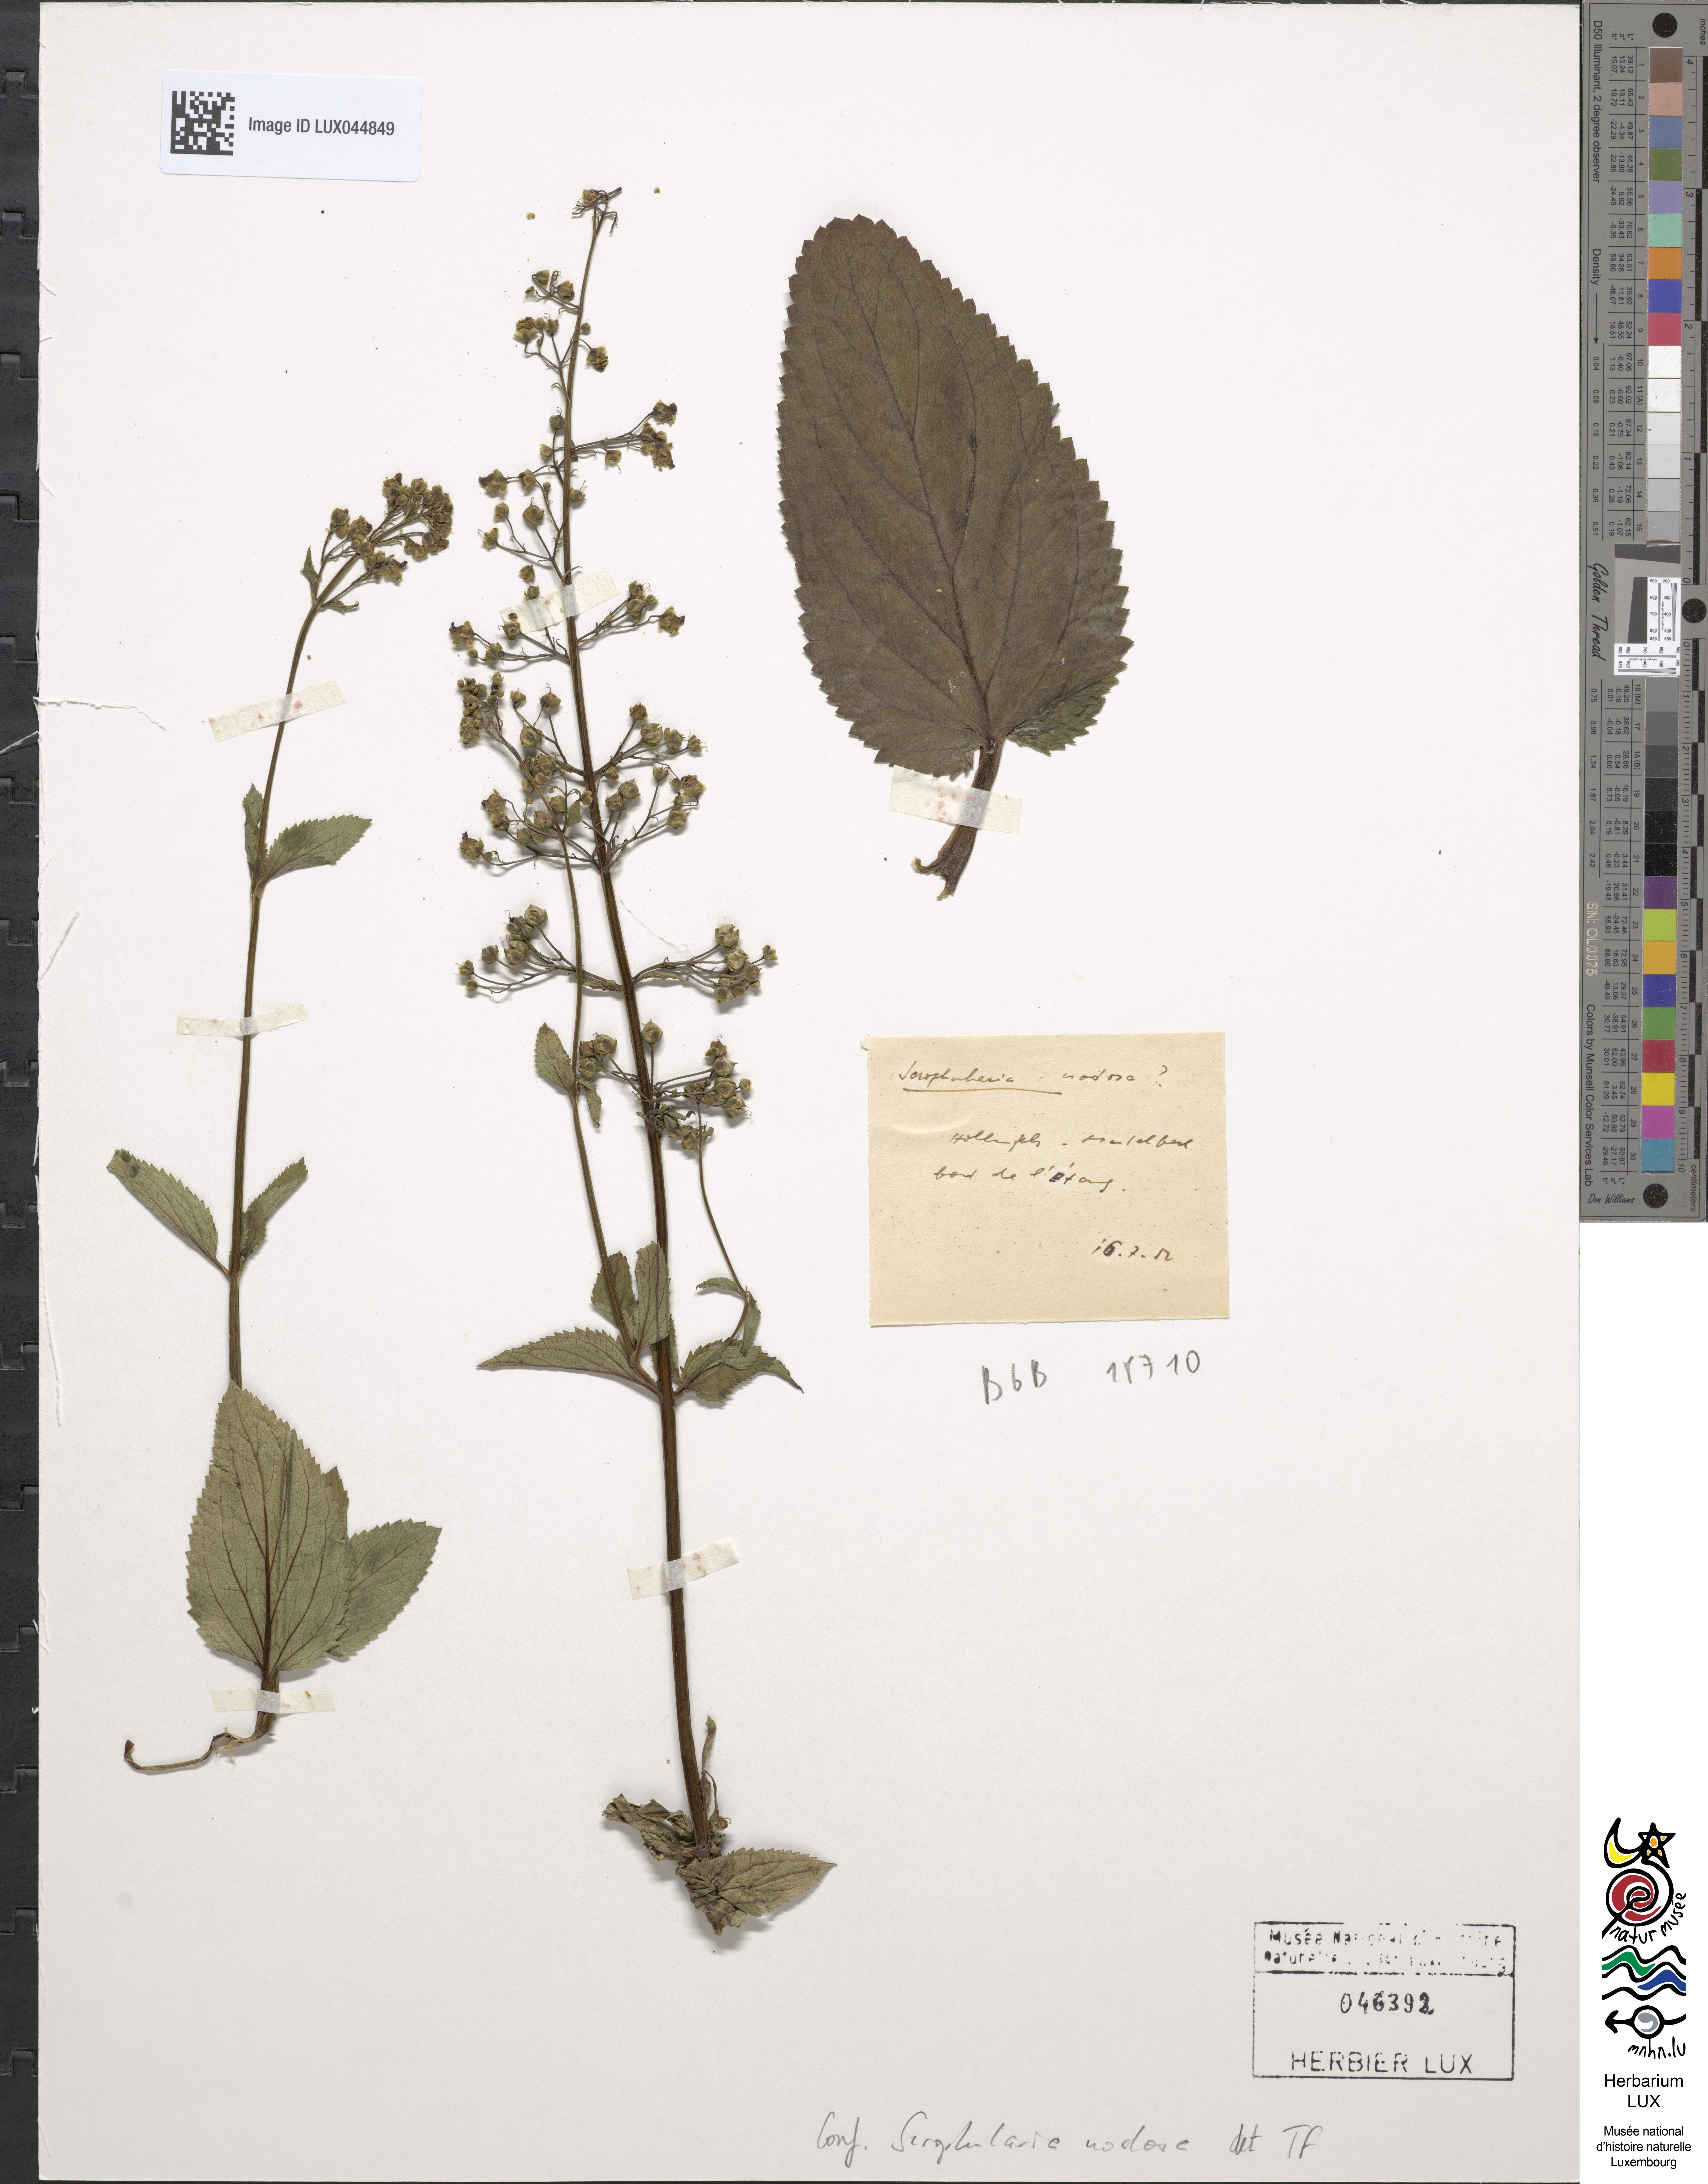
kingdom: Plantae
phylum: Tracheophyta
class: Magnoliopsida
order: Lamiales
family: Scrophulariaceae
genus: Scrophularia
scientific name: Scrophularia nodosa
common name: Common figwort
